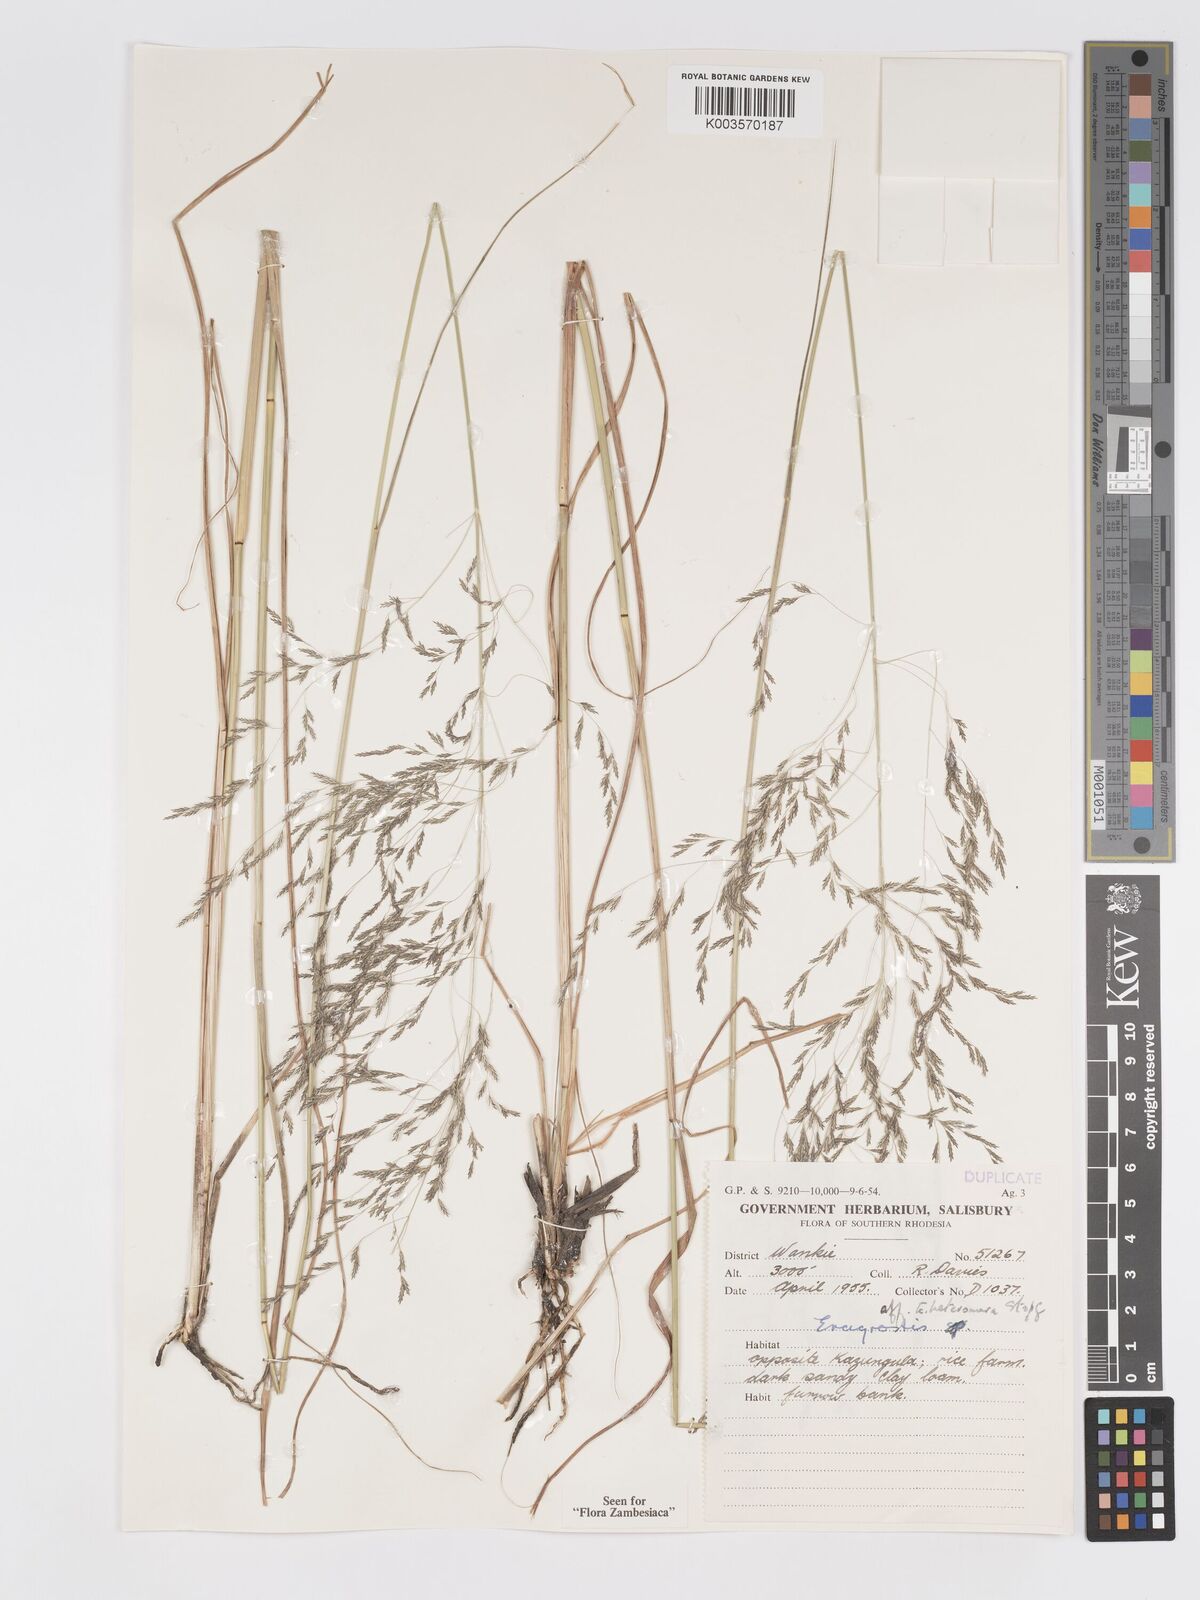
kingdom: Plantae
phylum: Tracheophyta
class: Liliopsida
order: Poales
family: Poaceae
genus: Eragrostis
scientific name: Eragrostis heteromera
